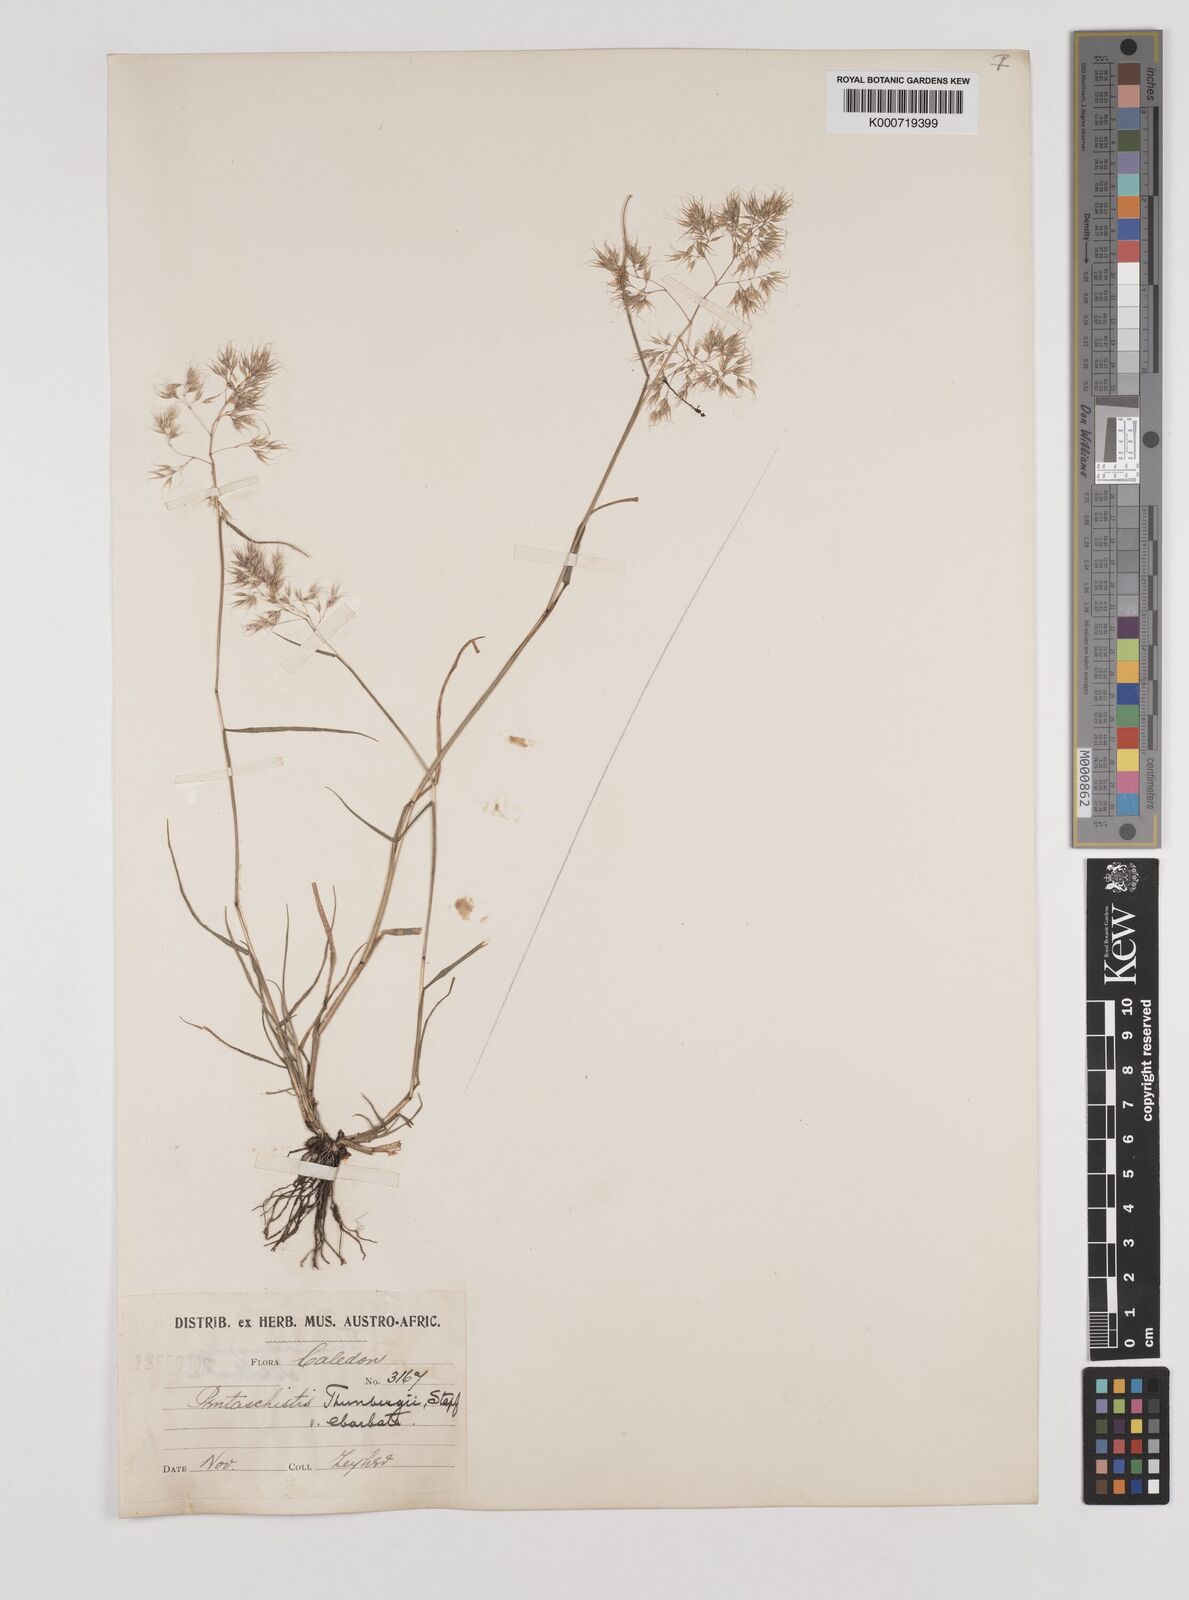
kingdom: Plantae
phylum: Tracheophyta
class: Liliopsida
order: Poales
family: Poaceae
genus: Pentameris
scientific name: Pentameris triseta
